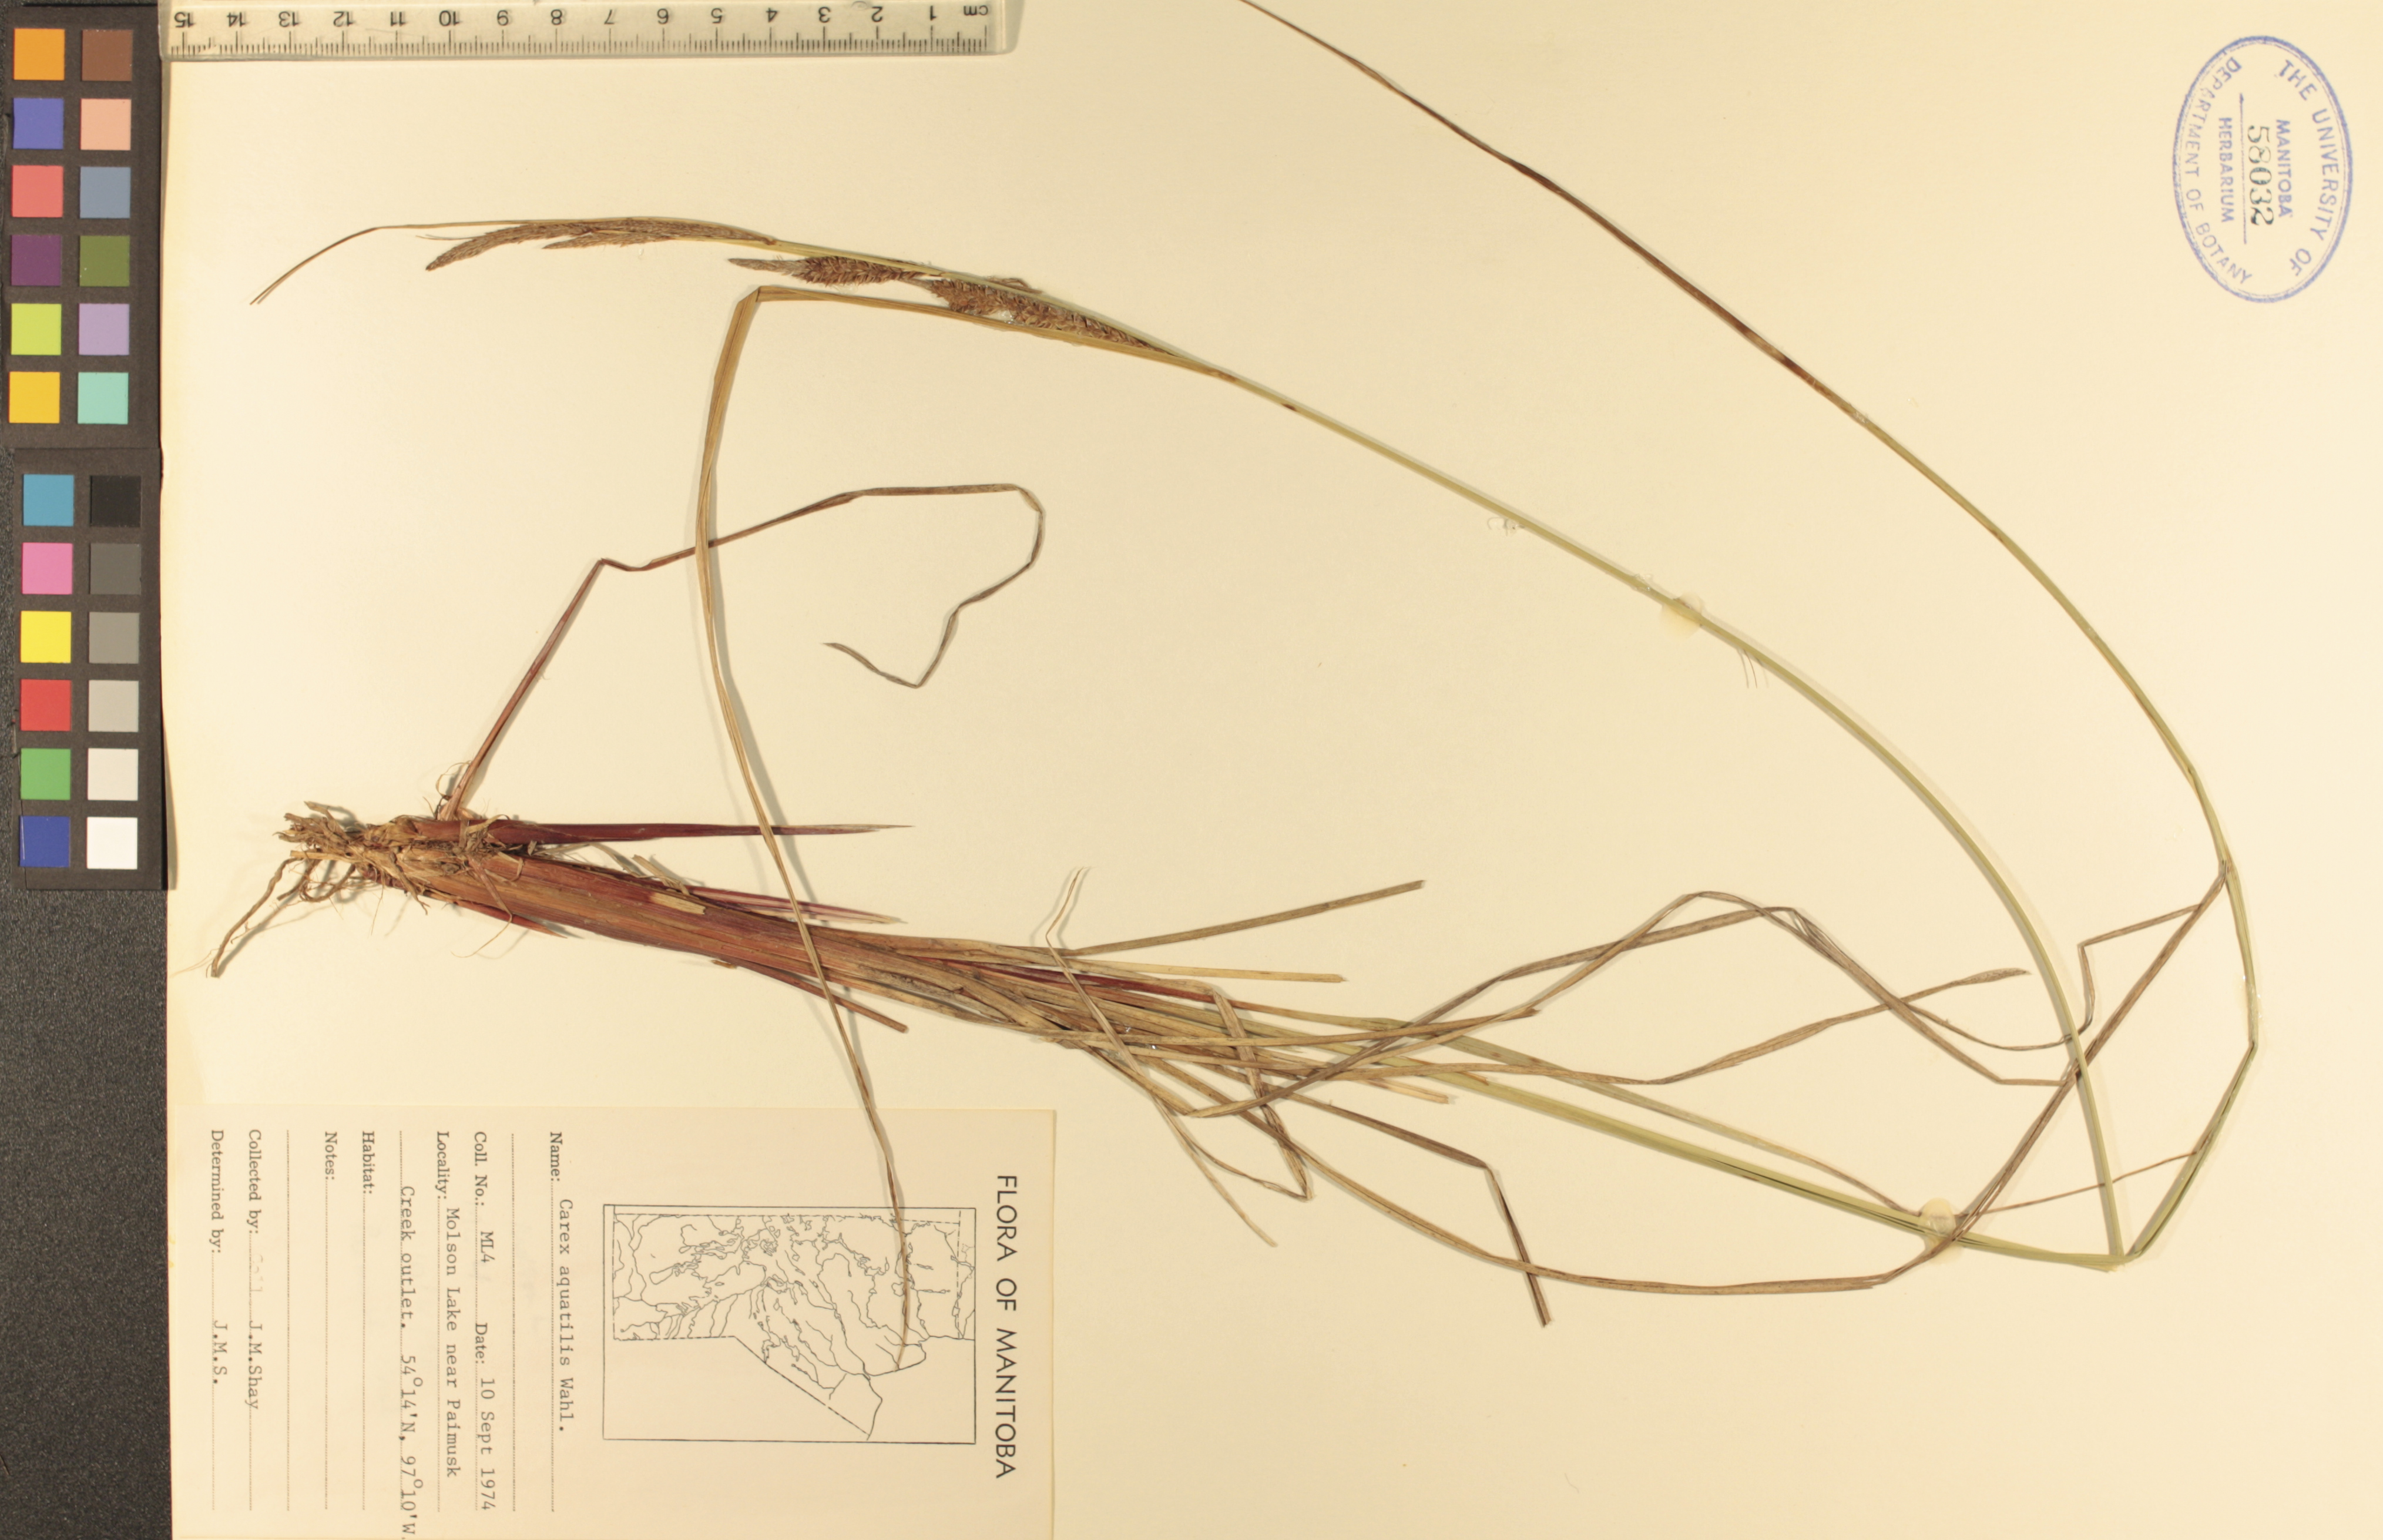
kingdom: Plantae
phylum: Tracheophyta
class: Liliopsida
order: Poales
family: Cyperaceae
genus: Carex
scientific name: Carex aquatilis
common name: Water sedge
